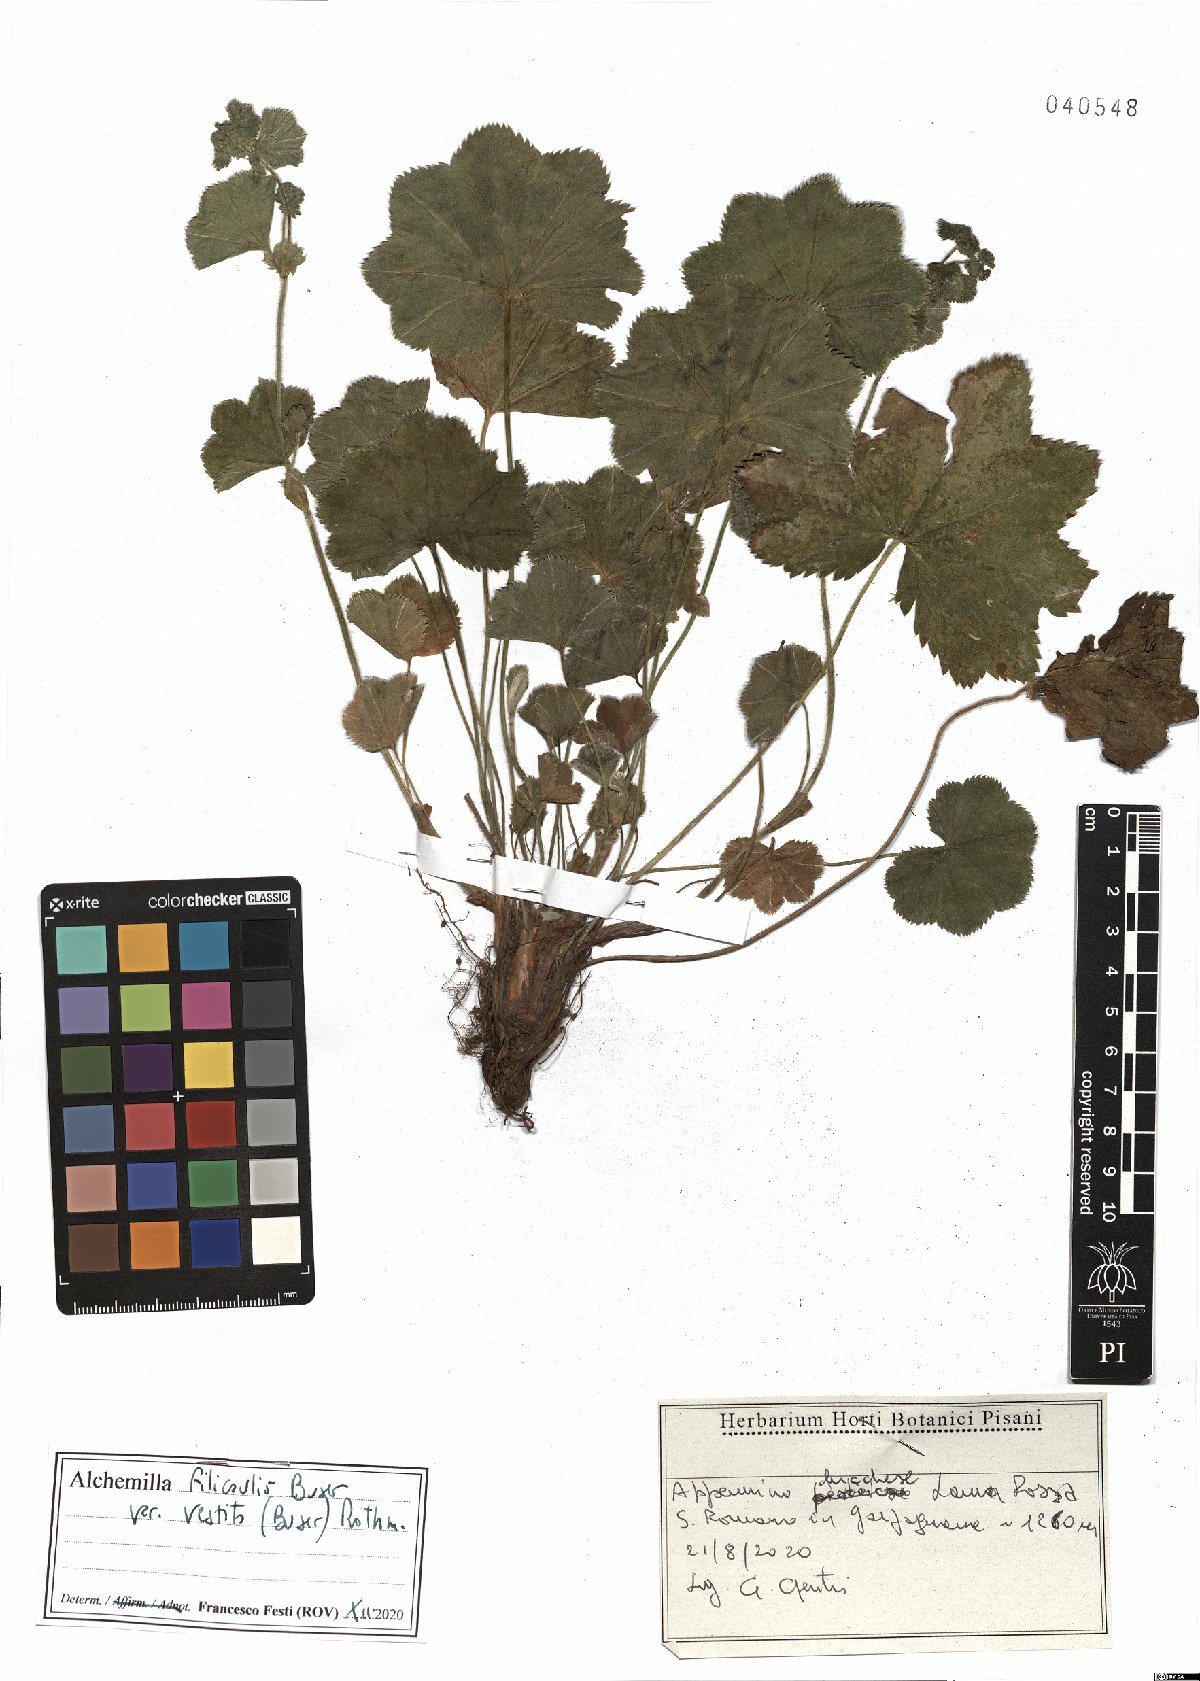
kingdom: Plantae
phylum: Tracheophyta
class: Magnoliopsida
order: Rosales
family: Rosaceae
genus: Alchemilla
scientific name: Alchemilla filicaulis
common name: Hairy lady's-mantle
